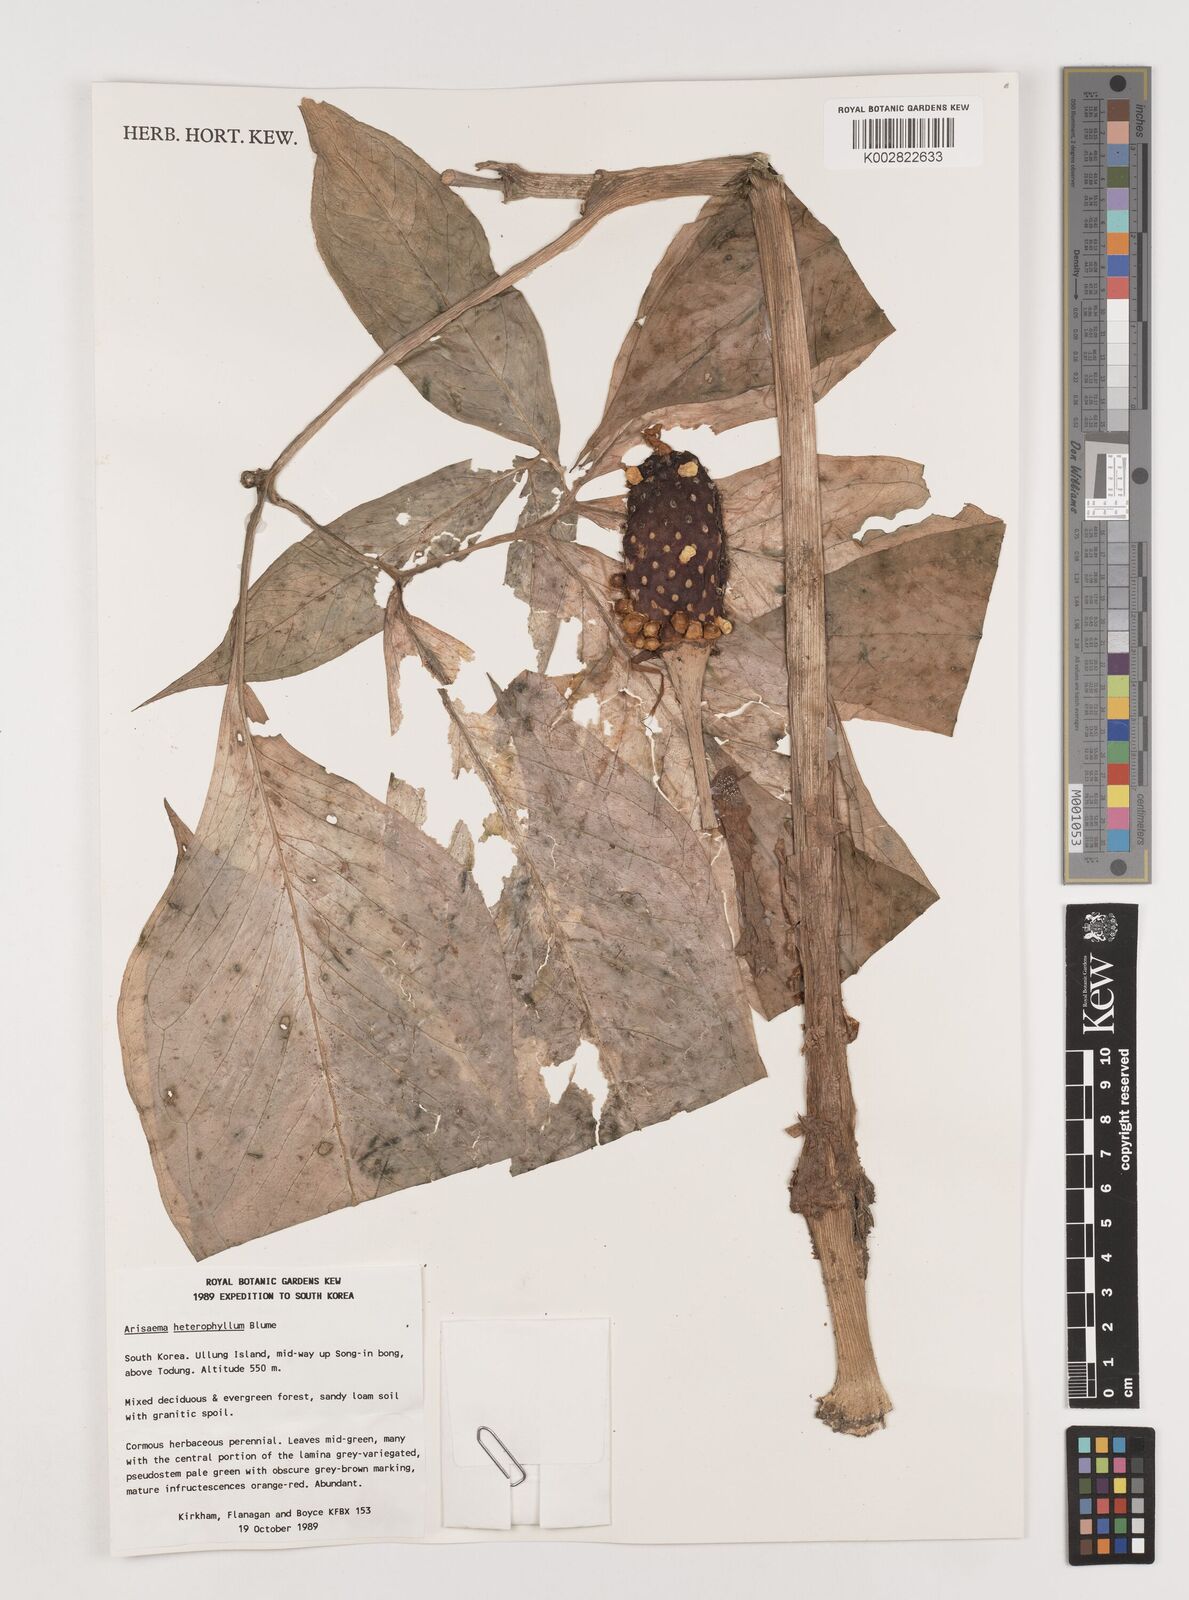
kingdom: Plantae
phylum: Tracheophyta
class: Liliopsida
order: Alismatales
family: Araceae
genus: Arisaema
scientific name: Arisaema serratum
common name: Japanese arisaema
